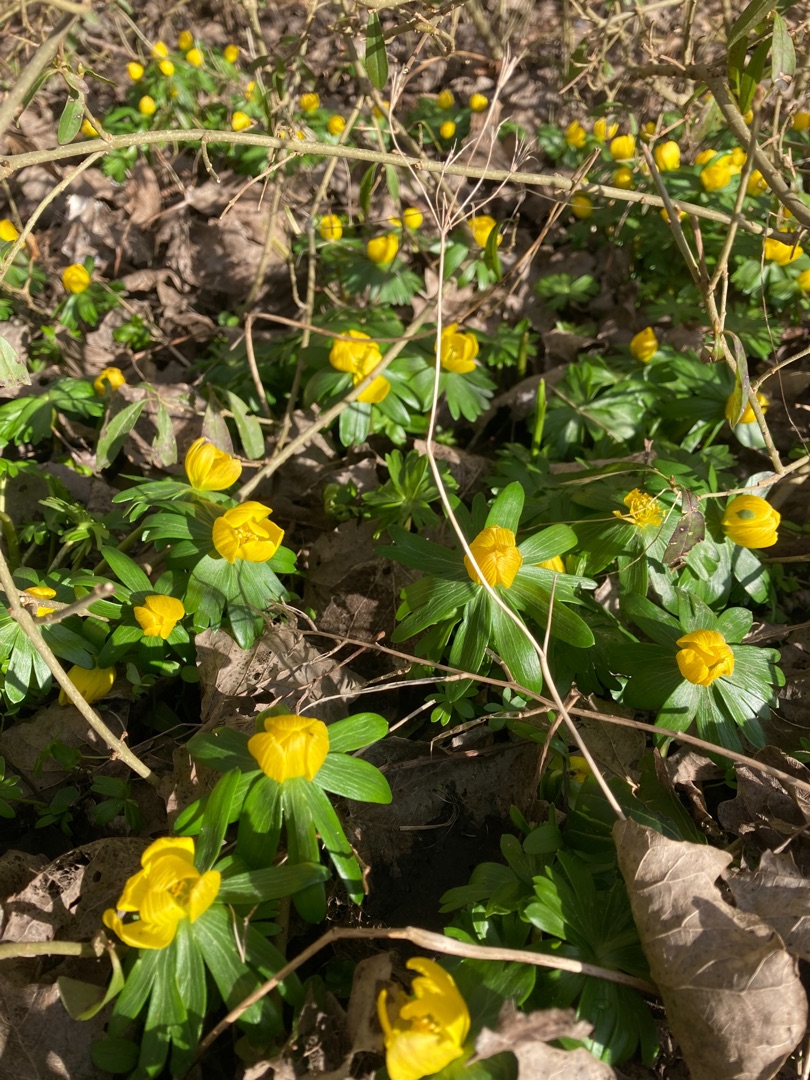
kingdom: Plantae
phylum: Tracheophyta
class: Magnoliopsida
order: Ranunculales
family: Ranunculaceae
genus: Eranthis
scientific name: Eranthis hyemalis
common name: Erantis
